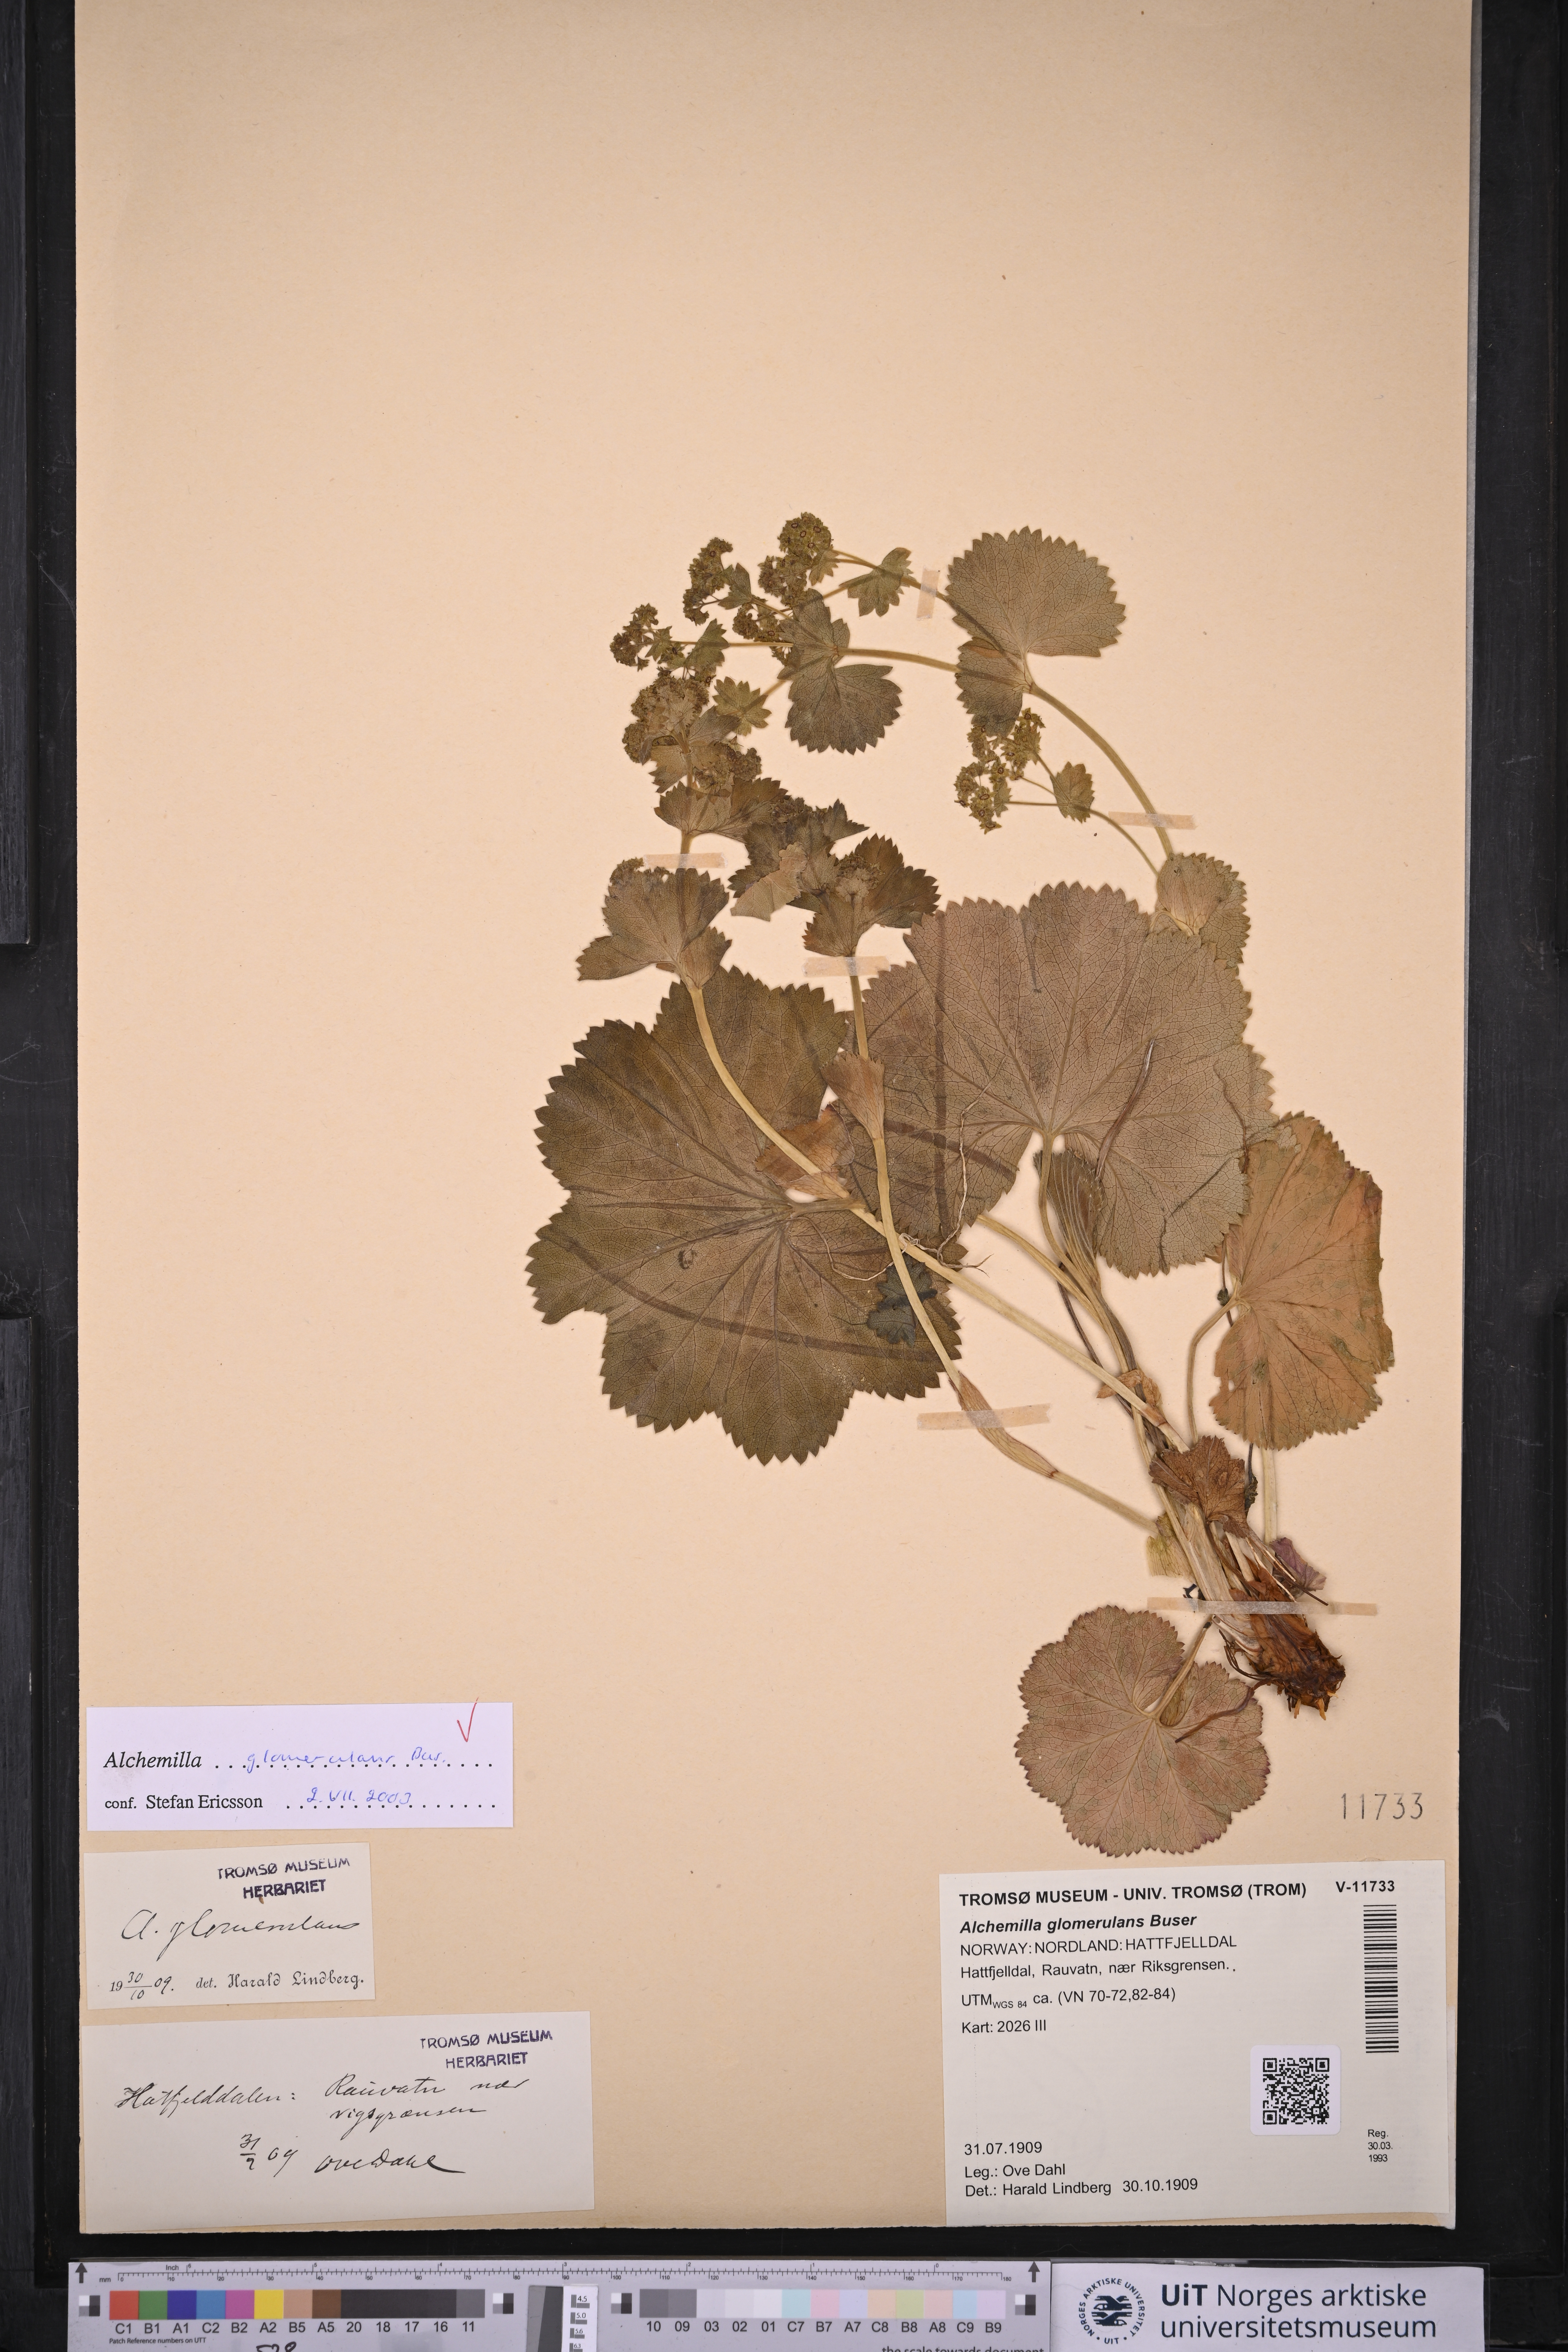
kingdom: Plantae
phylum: Tracheophyta
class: Magnoliopsida
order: Rosales
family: Rosaceae
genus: Alchemilla
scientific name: Alchemilla glomerulans
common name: Clustered lady's mantle
